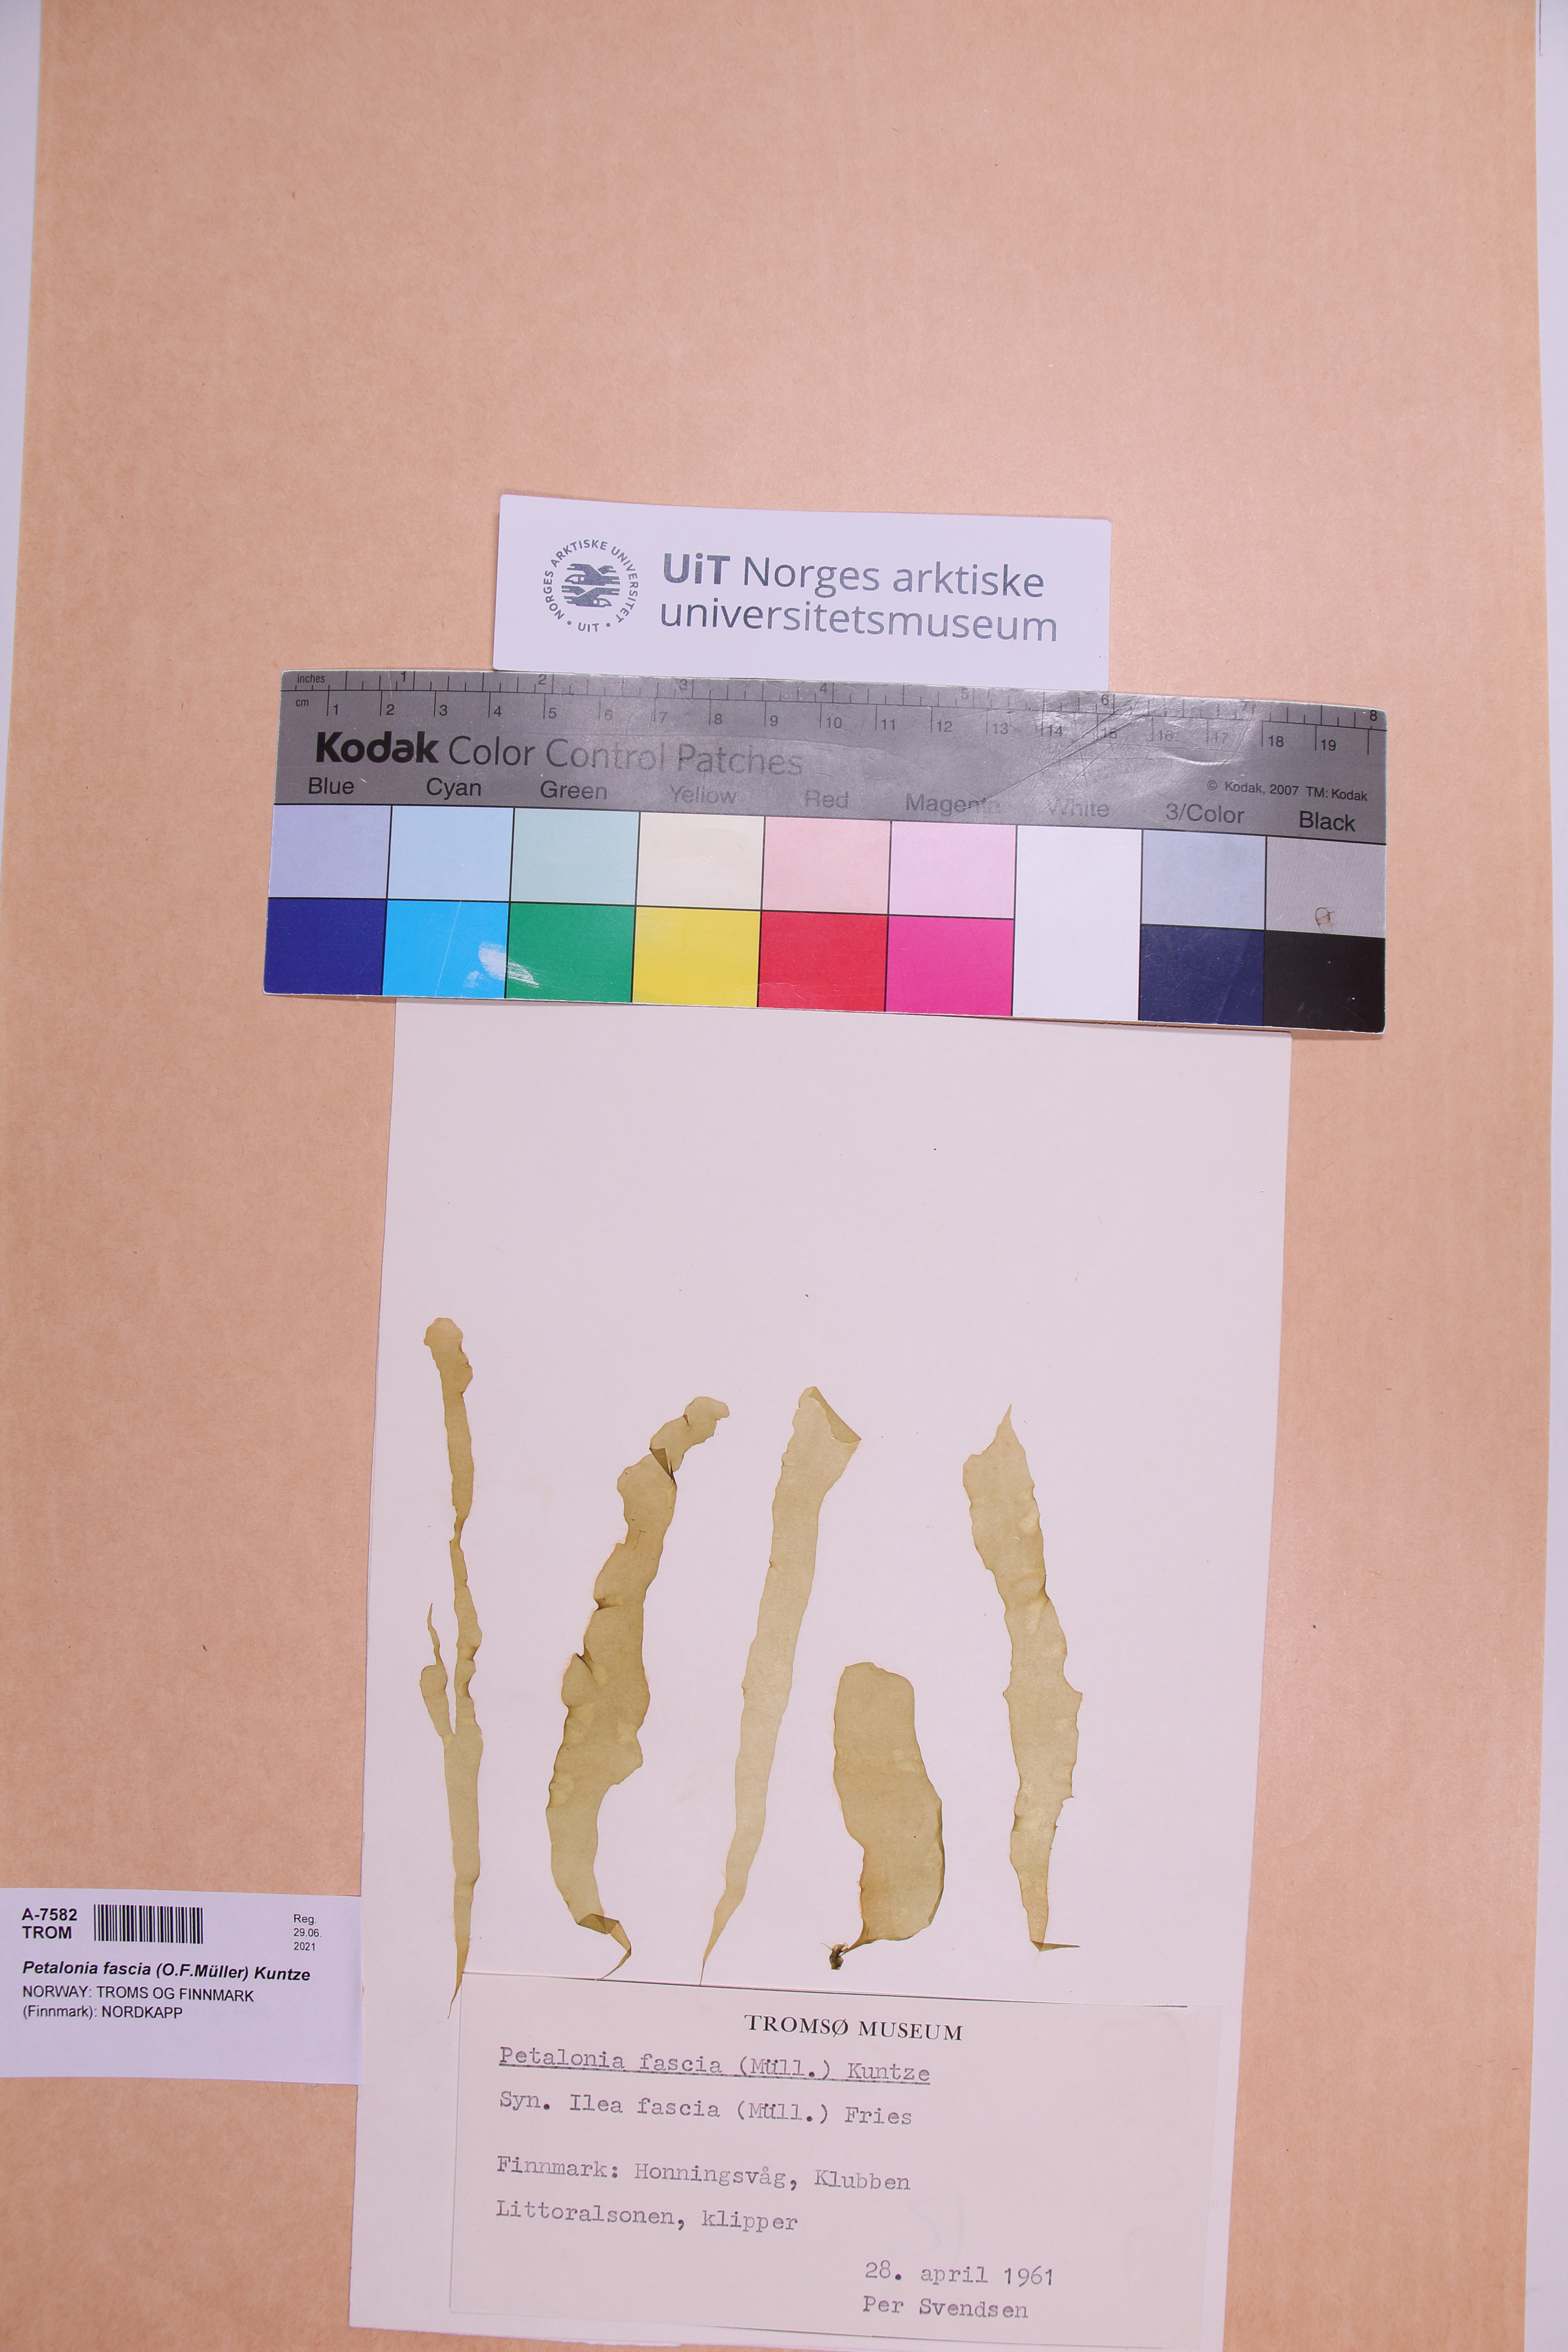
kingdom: Chromista
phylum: Ochrophyta
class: Phaeophyceae
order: Scytosiphonales
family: Scytosiphonaceae
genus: Petalonia
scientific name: Petalonia fascia
